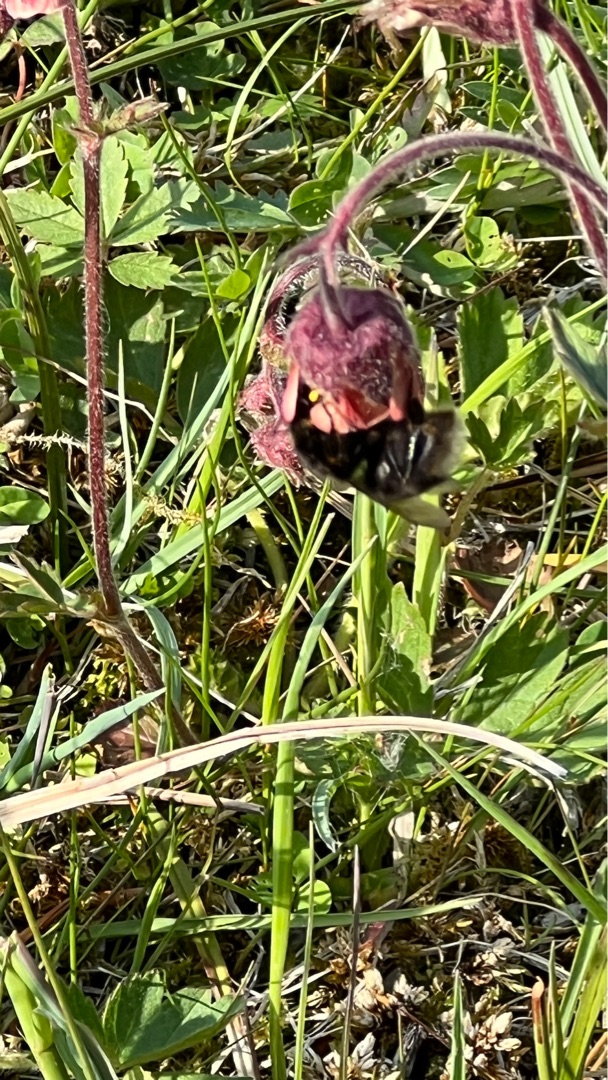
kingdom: Plantae
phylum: Tracheophyta
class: Magnoliopsida
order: Rosales
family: Rosaceae
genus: Geum
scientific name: Geum rivale
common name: Eng-nellikerod
